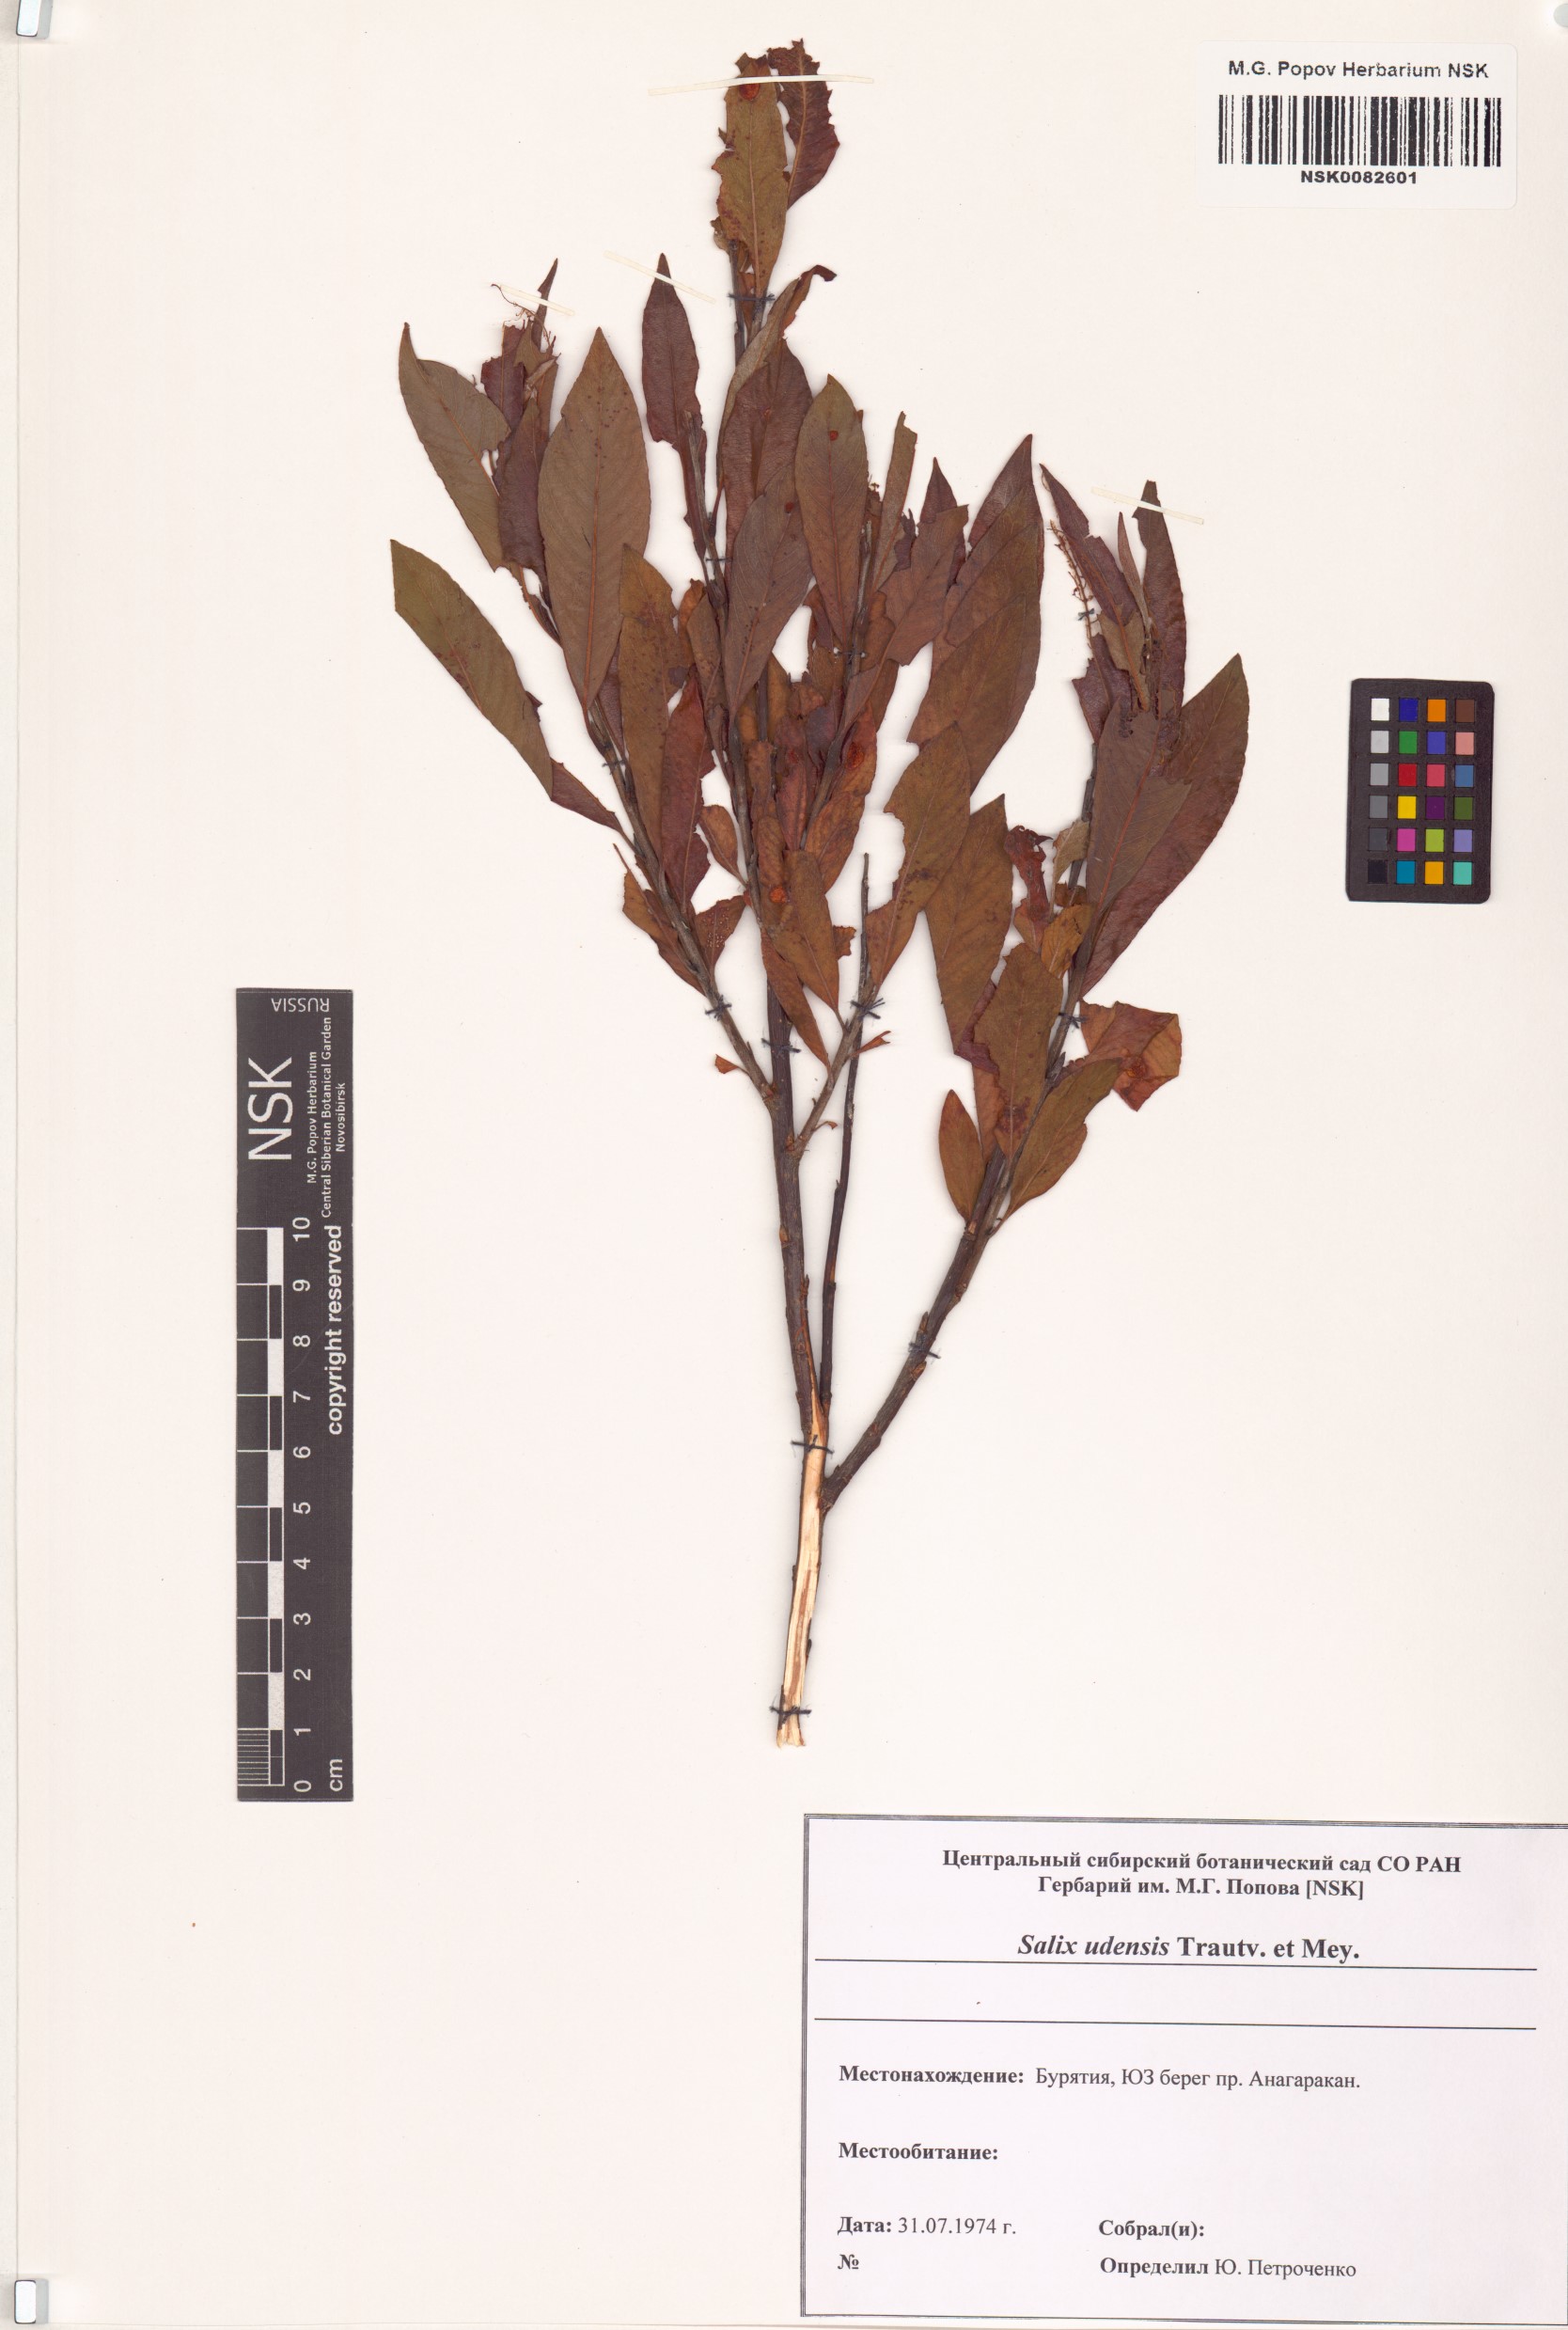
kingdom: Plantae
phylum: Tracheophyta
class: Magnoliopsida
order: Malpighiales
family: Salicaceae
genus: Salix
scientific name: Salix udensis
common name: Sachalin willow
